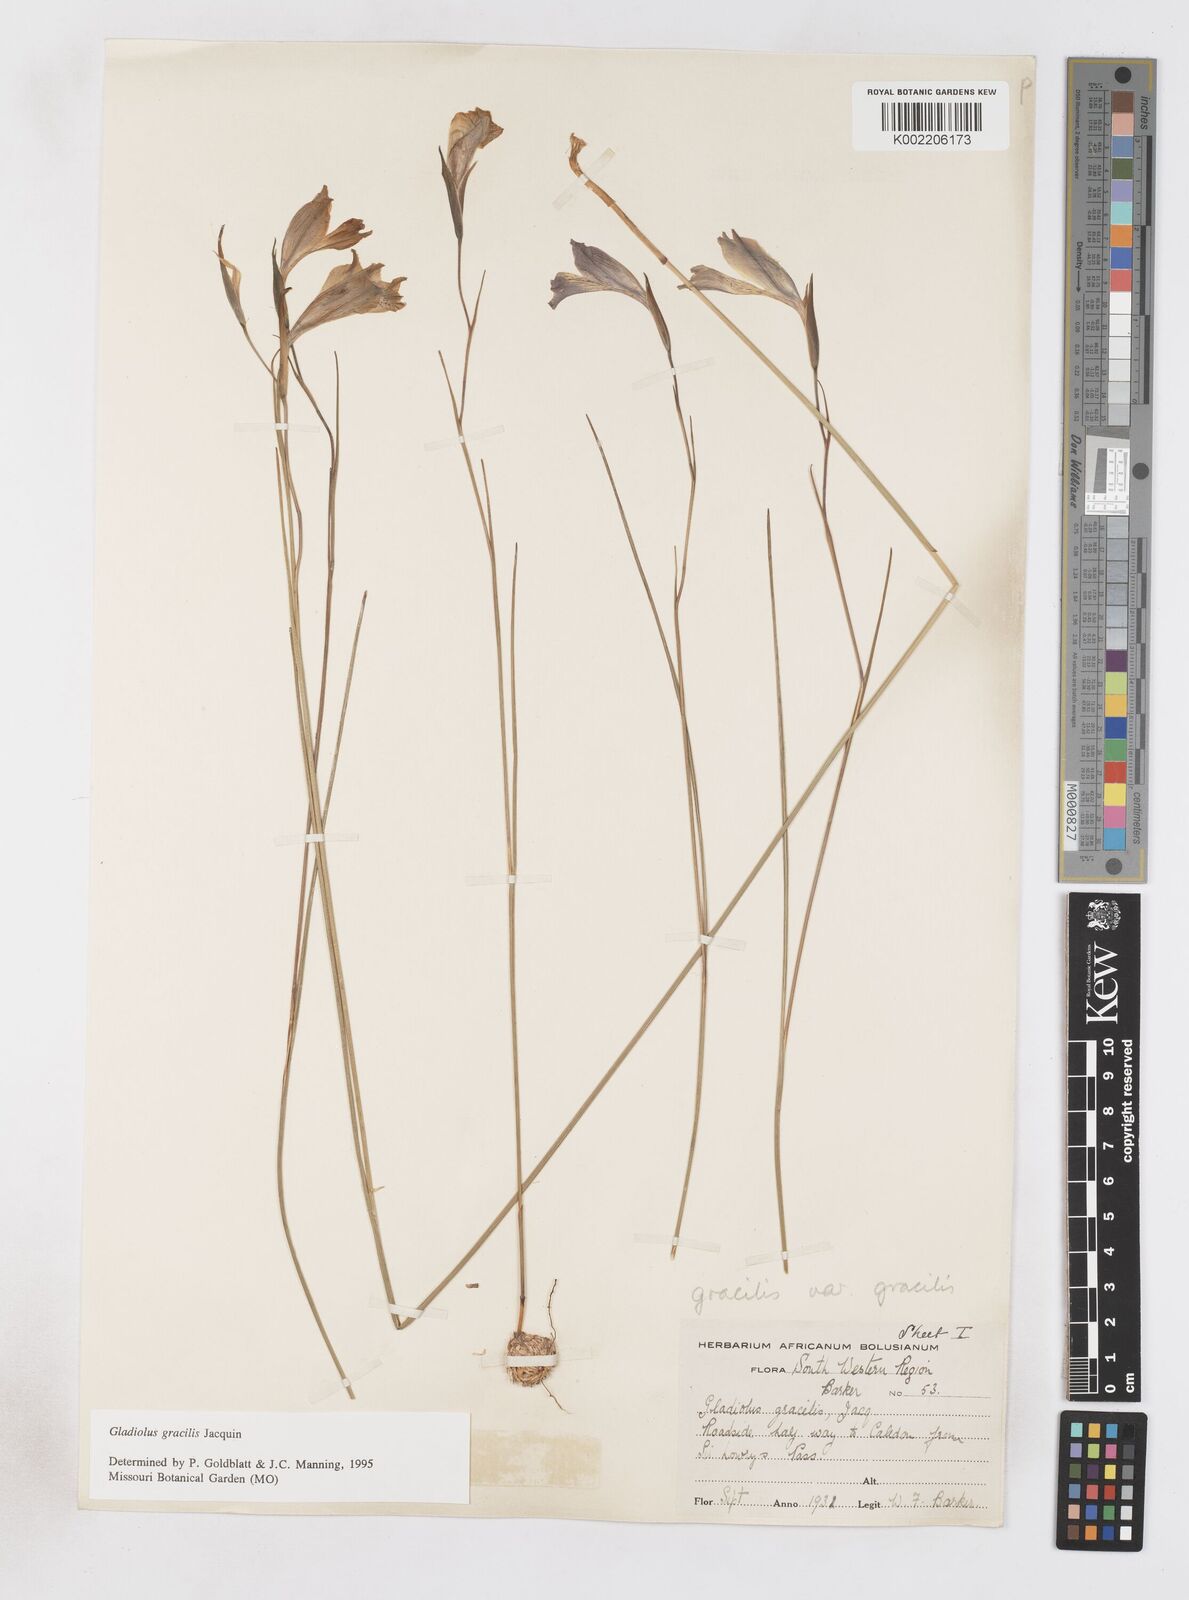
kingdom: Plantae
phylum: Tracheophyta
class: Liliopsida
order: Asparagales
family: Iridaceae
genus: Gladiolus
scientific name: Gladiolus gracilis
